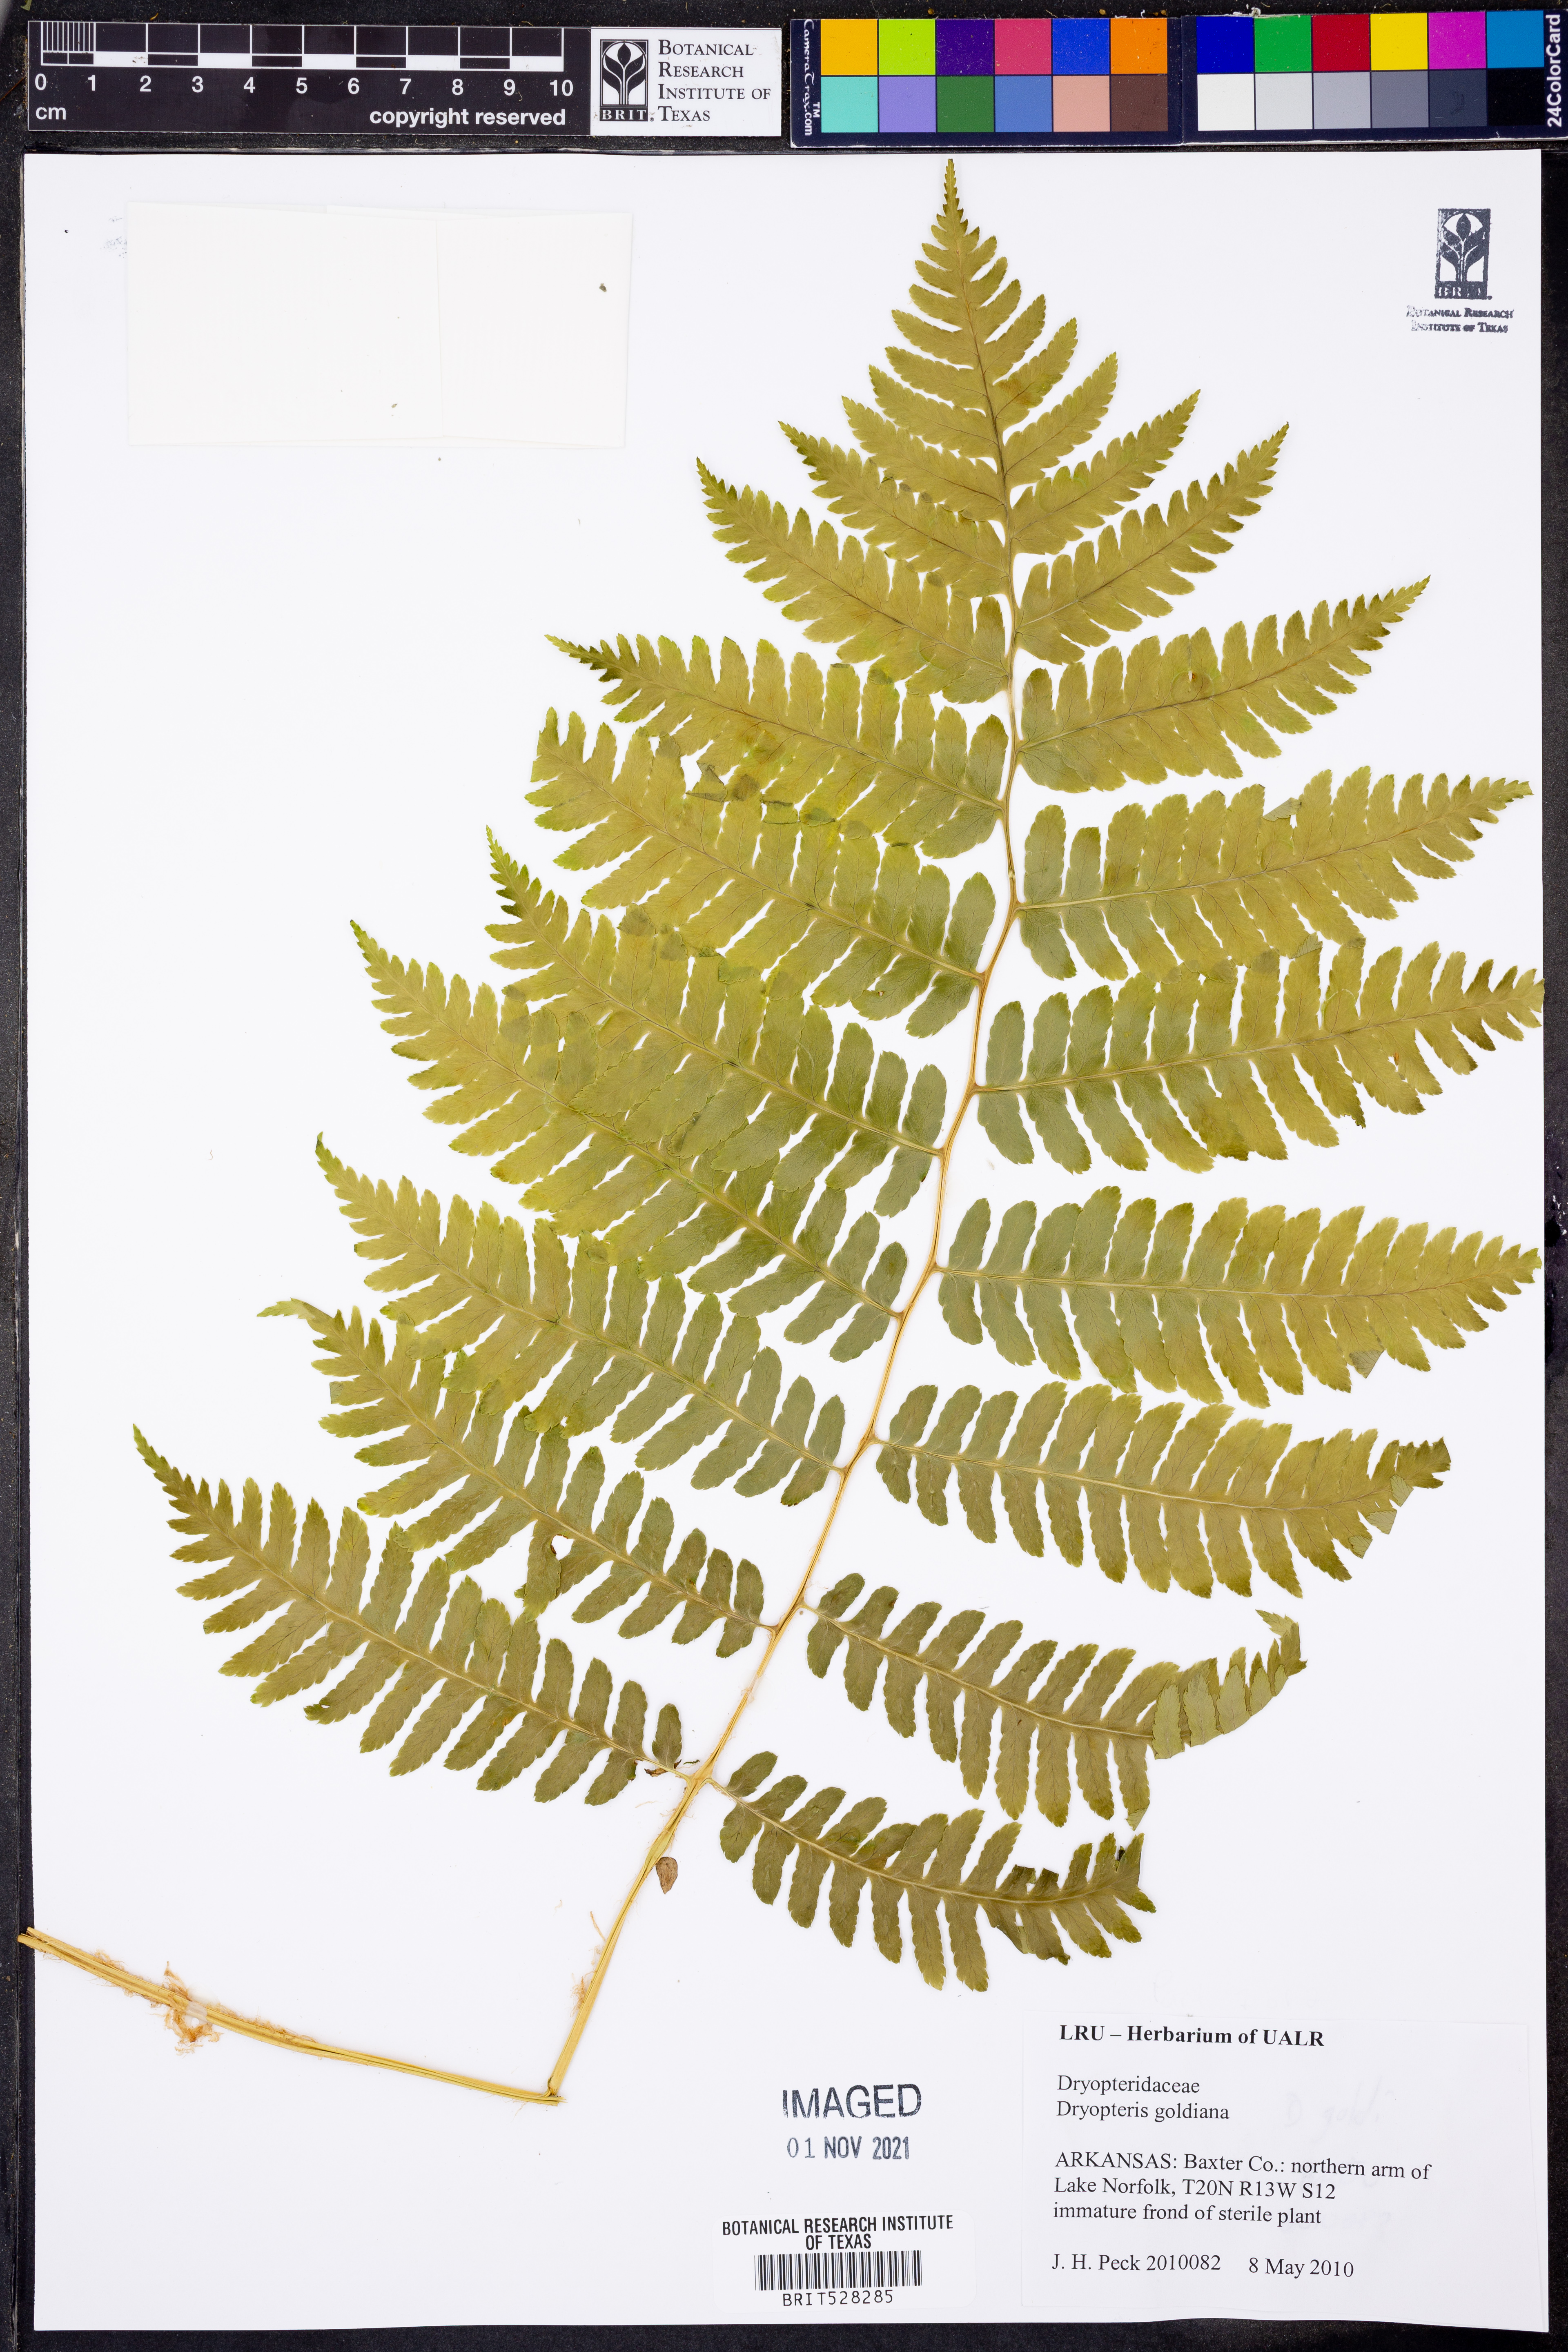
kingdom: Plantae
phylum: Tracheophyta
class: Polypodiopsida
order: Polypodiales
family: Dryopteridaceae
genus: Dryopteris
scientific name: Dryopteris goeldiana
